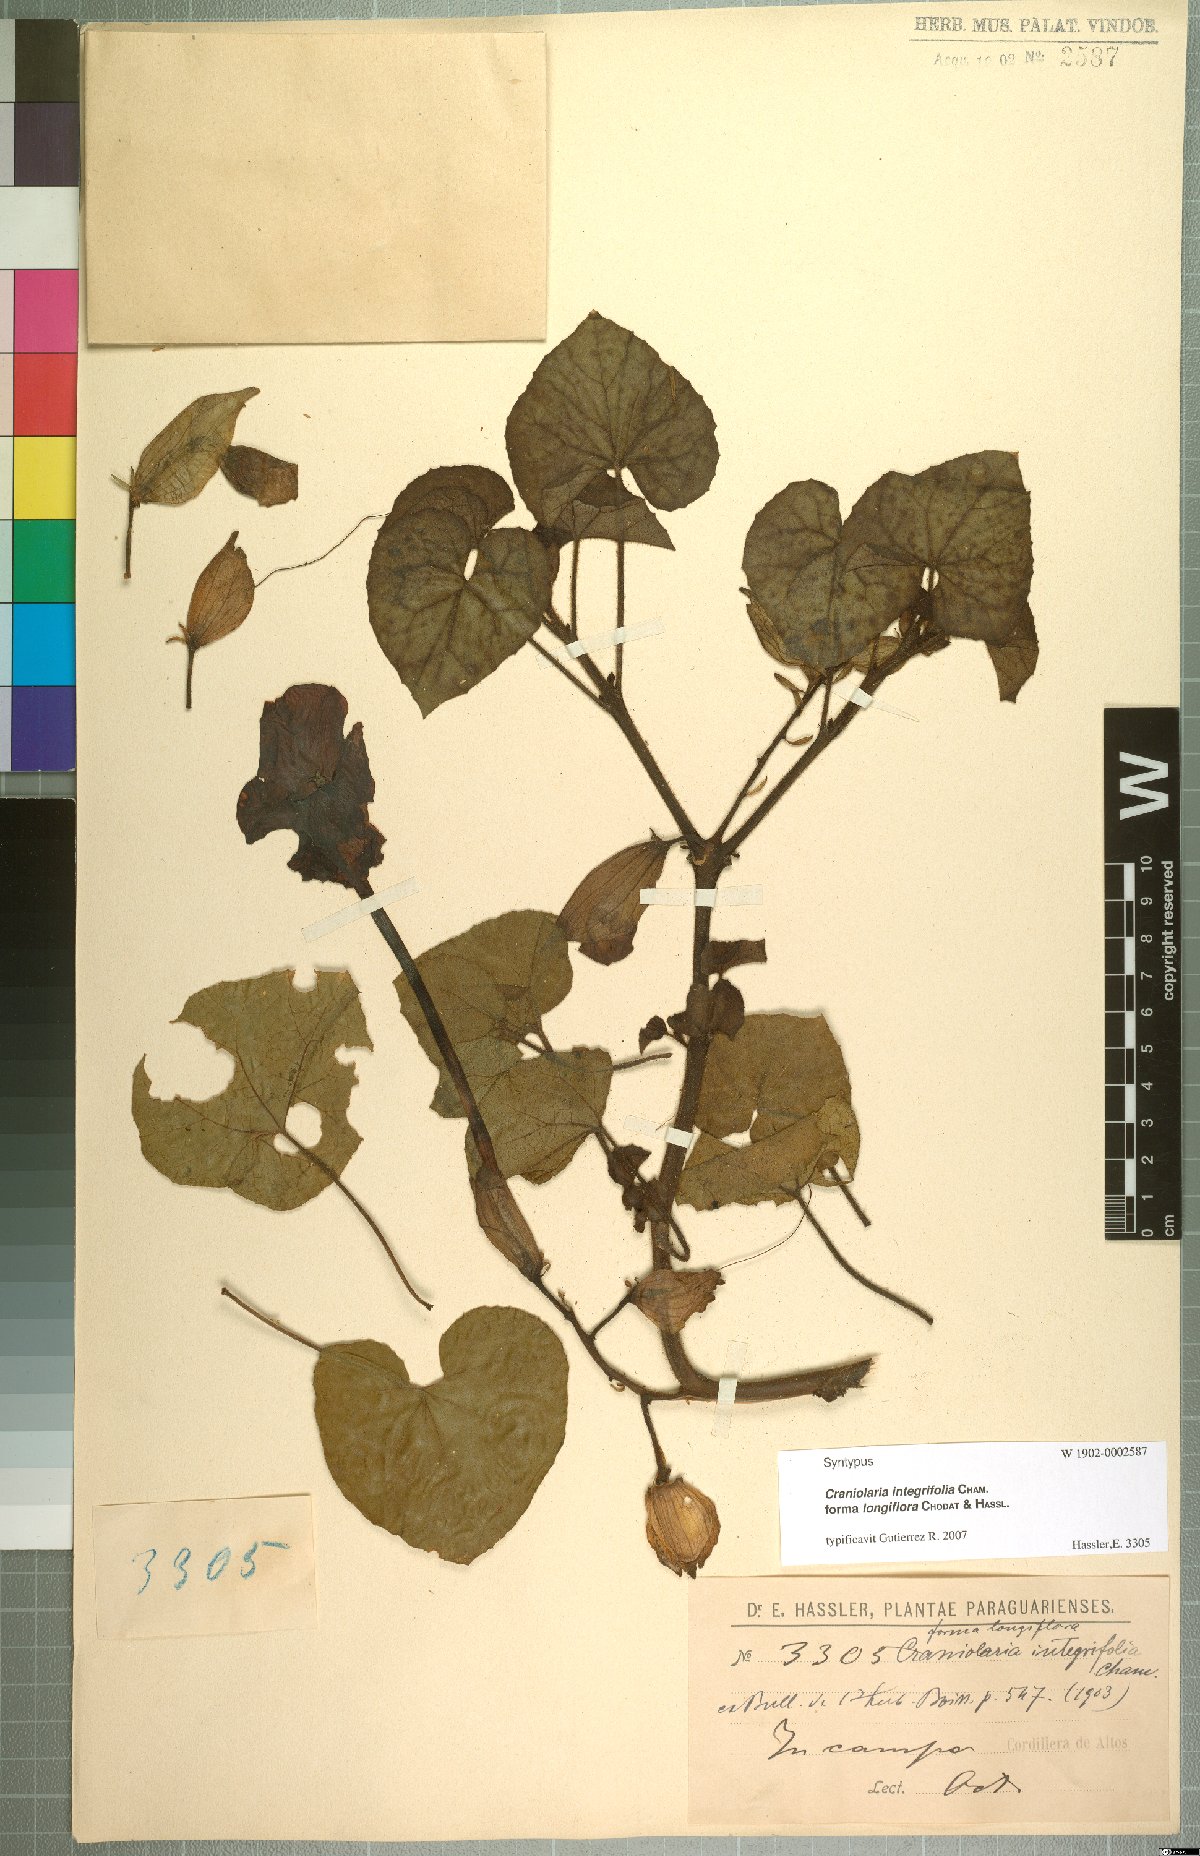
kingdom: Plantae
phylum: Tracheophyta
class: Magnoliopsida
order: Lamiales
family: Martyniaceae
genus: Craniolaria
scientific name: Craniolaria integrifolia
